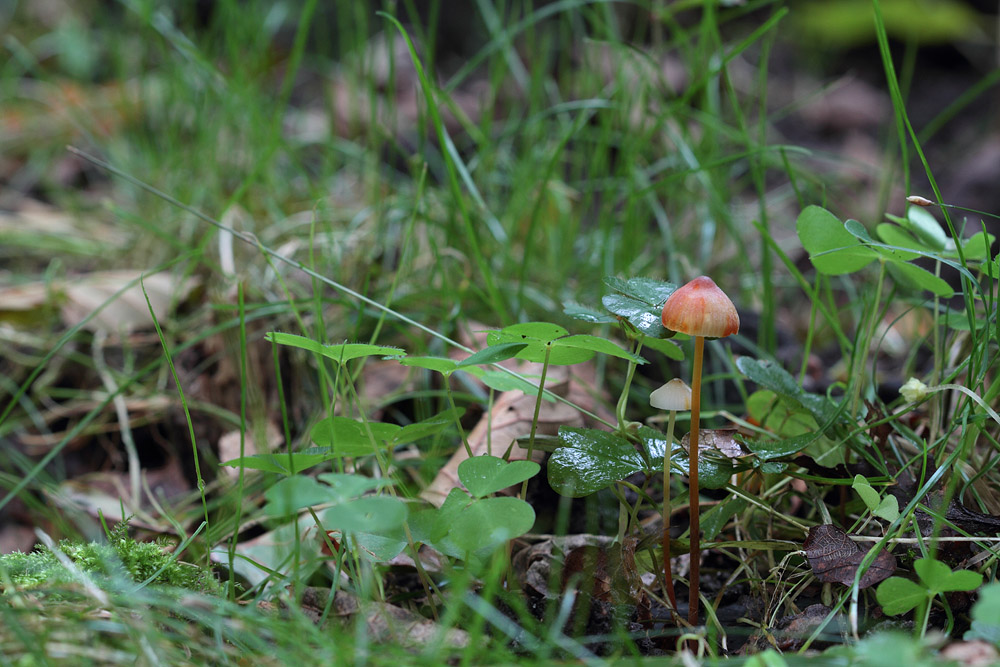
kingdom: Fungi
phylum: Basidiomycota
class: Agaricomycetes
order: Agaricales
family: Mycenaceae
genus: Mycena
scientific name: Mycena sanguinolenta
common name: rødmælket huesvamp
